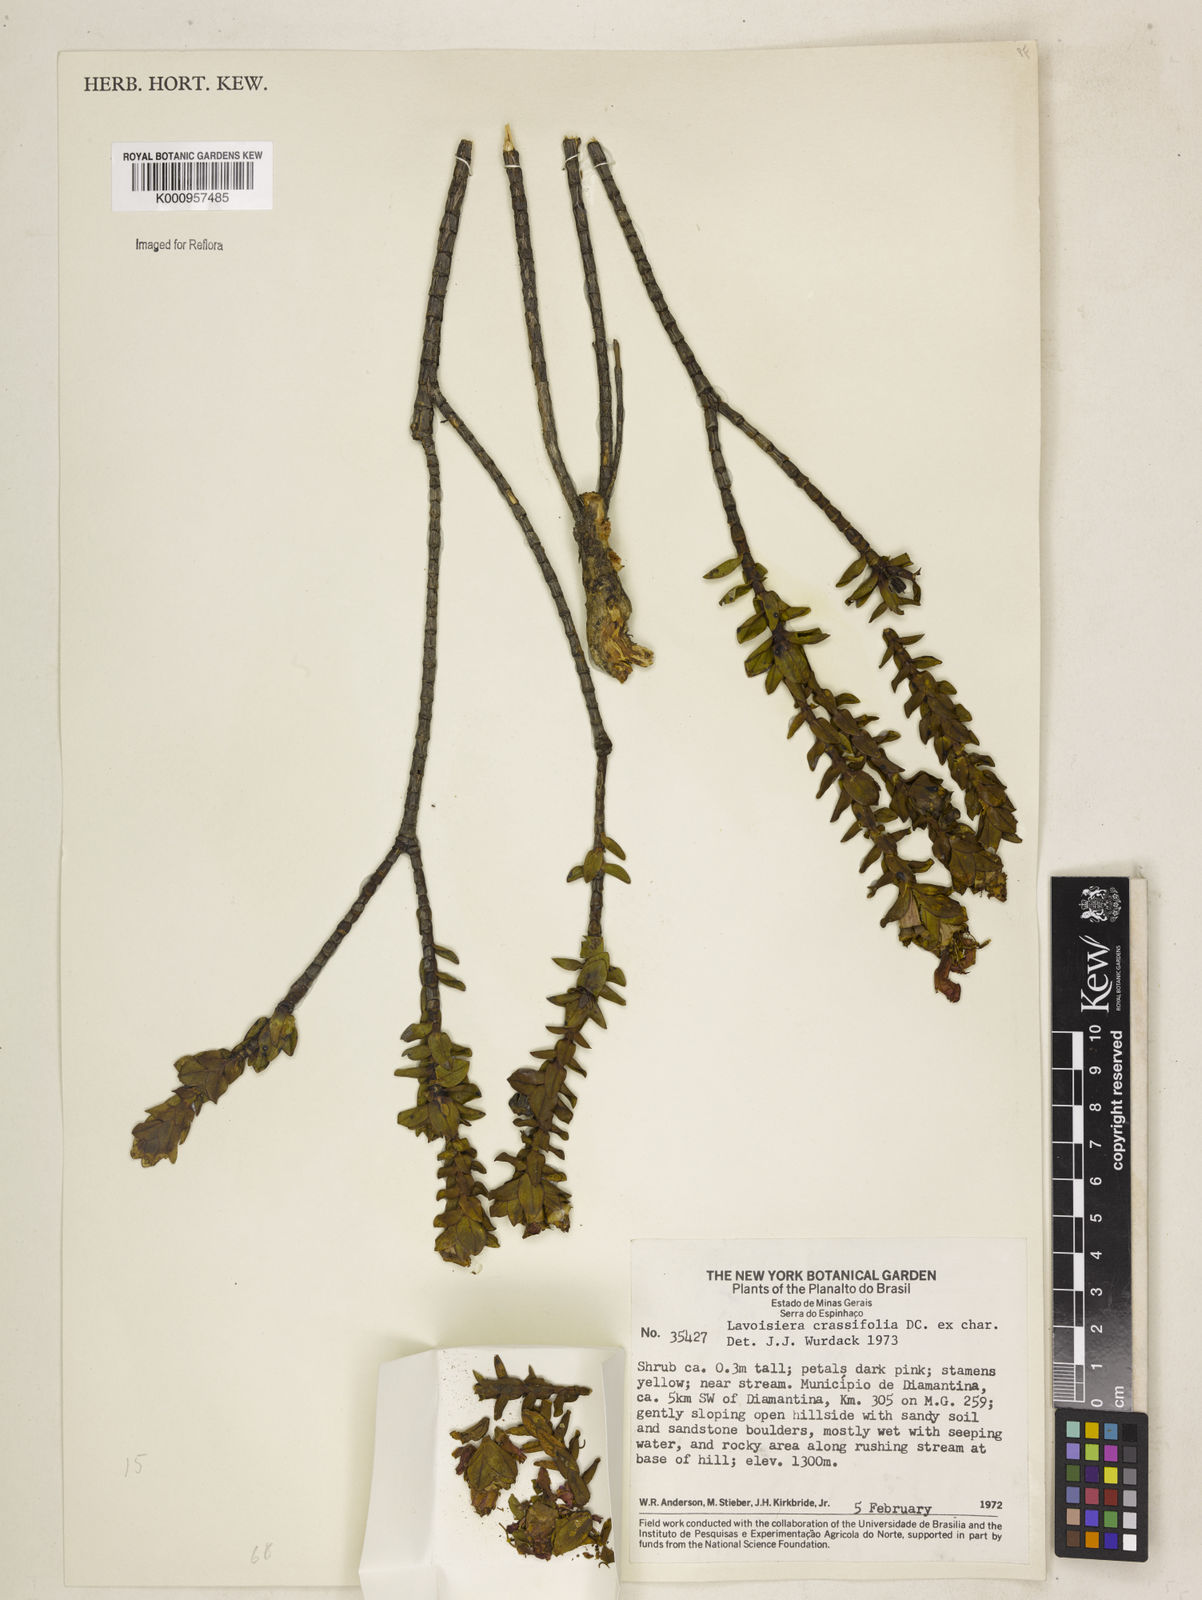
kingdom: Plantae
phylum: Tracheophyta
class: Magnoliopsida
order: Myrtales
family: Melastomataceae
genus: Microlicia
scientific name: Microlicia crassifolia
